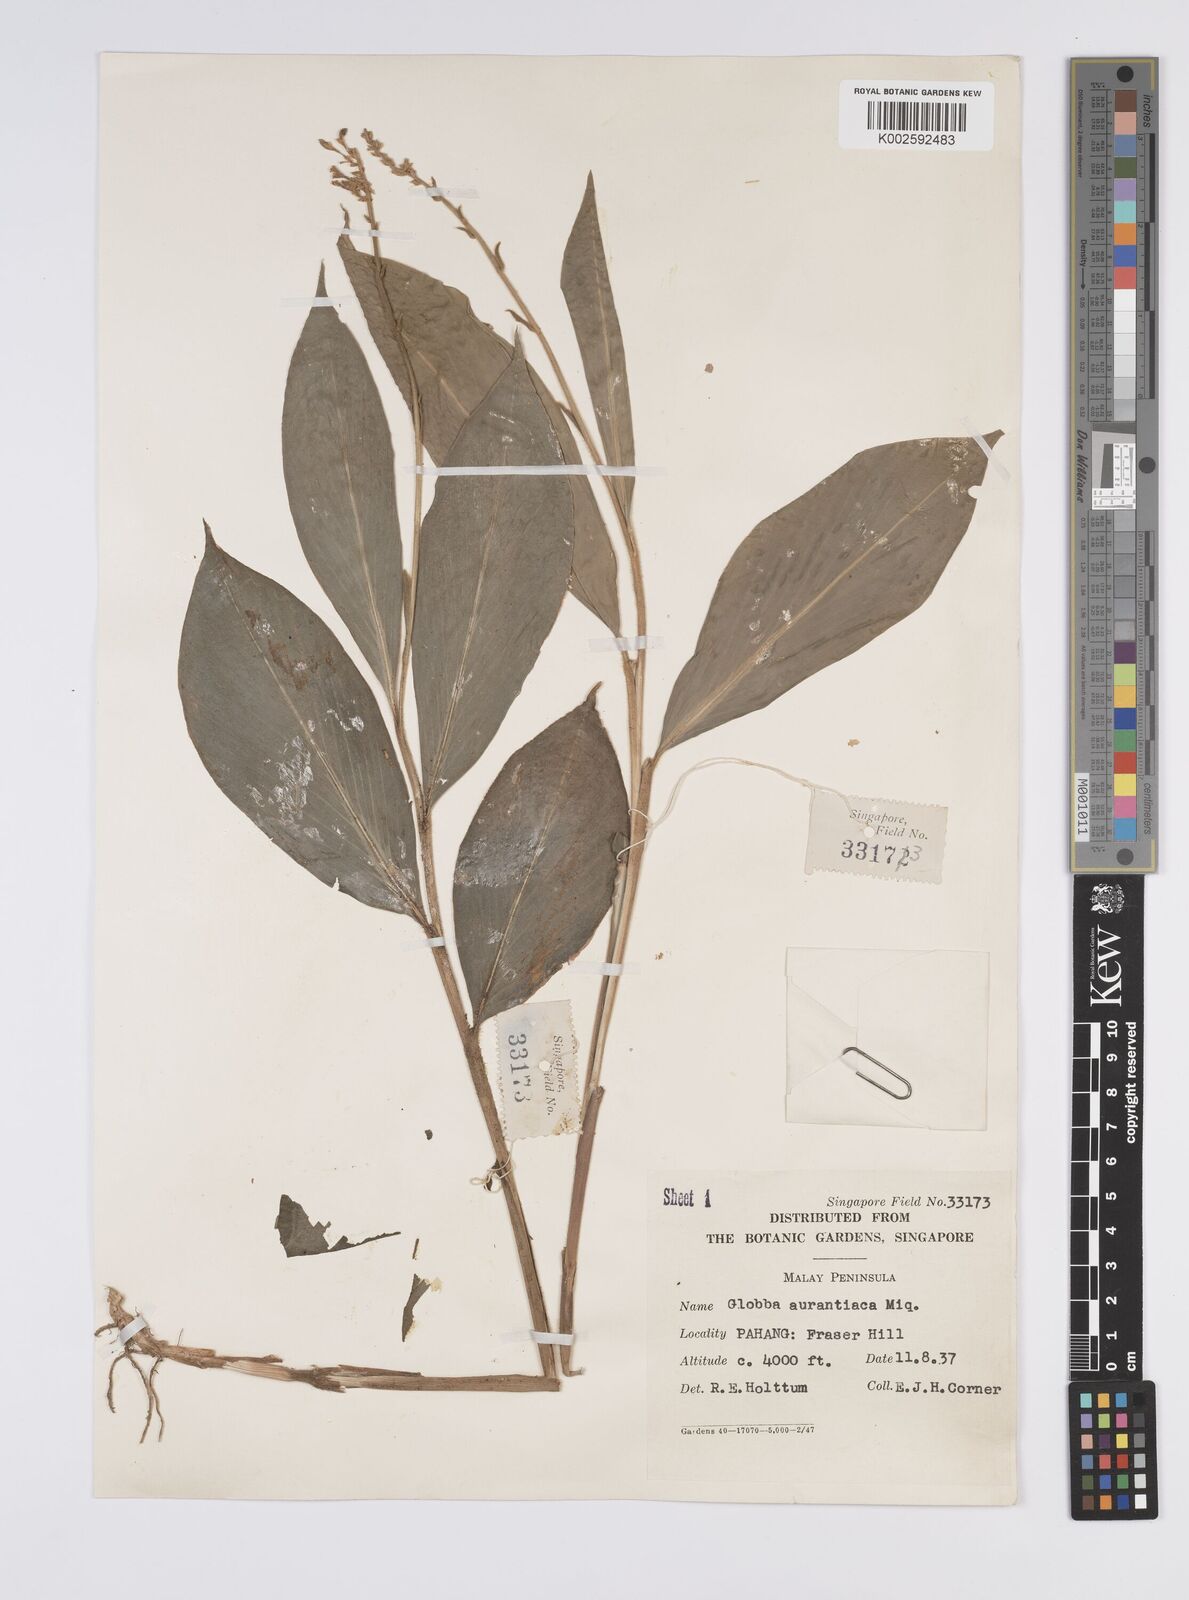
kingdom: Plantae
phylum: Tracheophyta
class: Liliopsida
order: Zingiberales
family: Zingiberaceae
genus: Globba
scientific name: Globba aurantiaca
